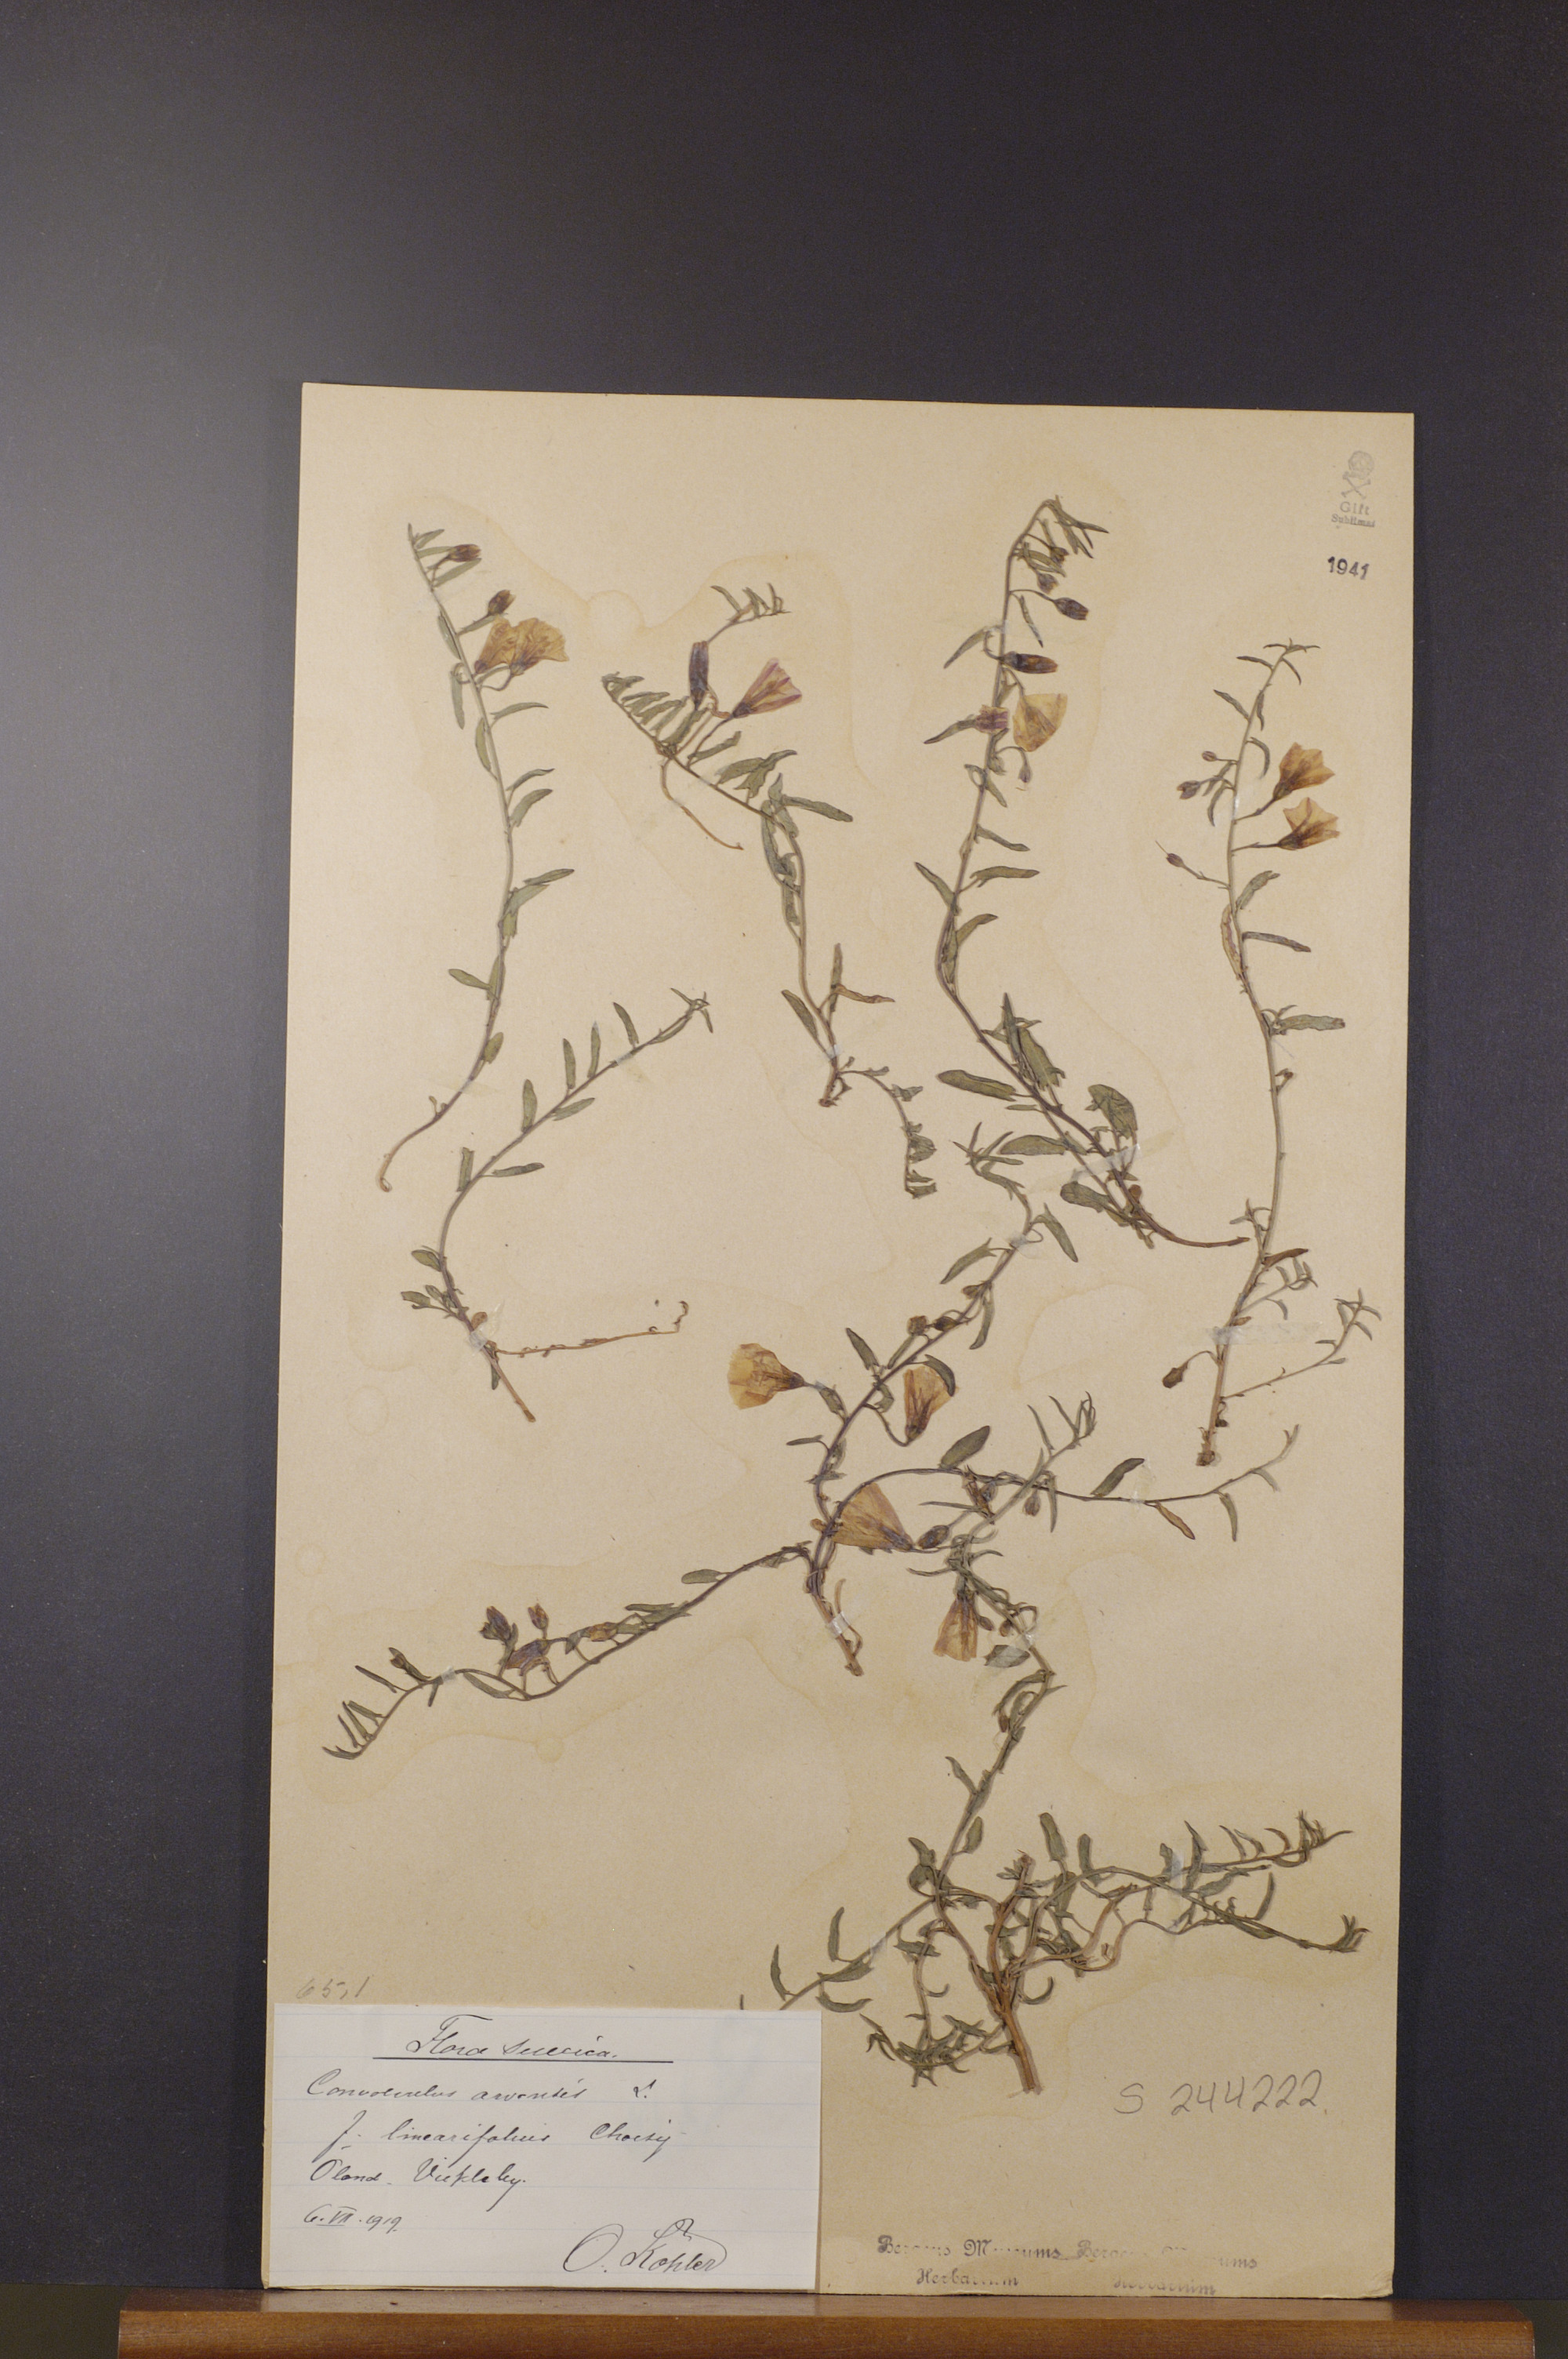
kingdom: Plantae
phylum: Tracheophyta
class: Magnoliopsida
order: Solanales
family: Convolvulaceae
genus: Convolvulus
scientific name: Convolvulus arvensis
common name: Field bindweed
